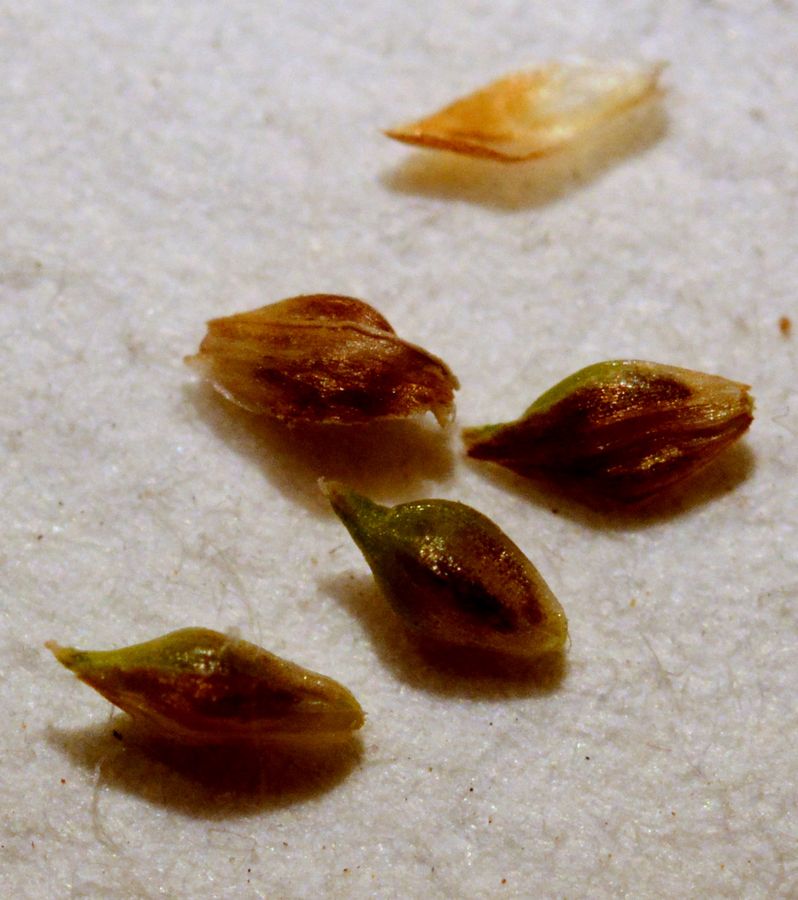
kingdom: Plantae
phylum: Tracheophyta
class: Liliopsida
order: Poales
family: Cyperaceae
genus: Carex
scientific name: Carex lepidocarpa
